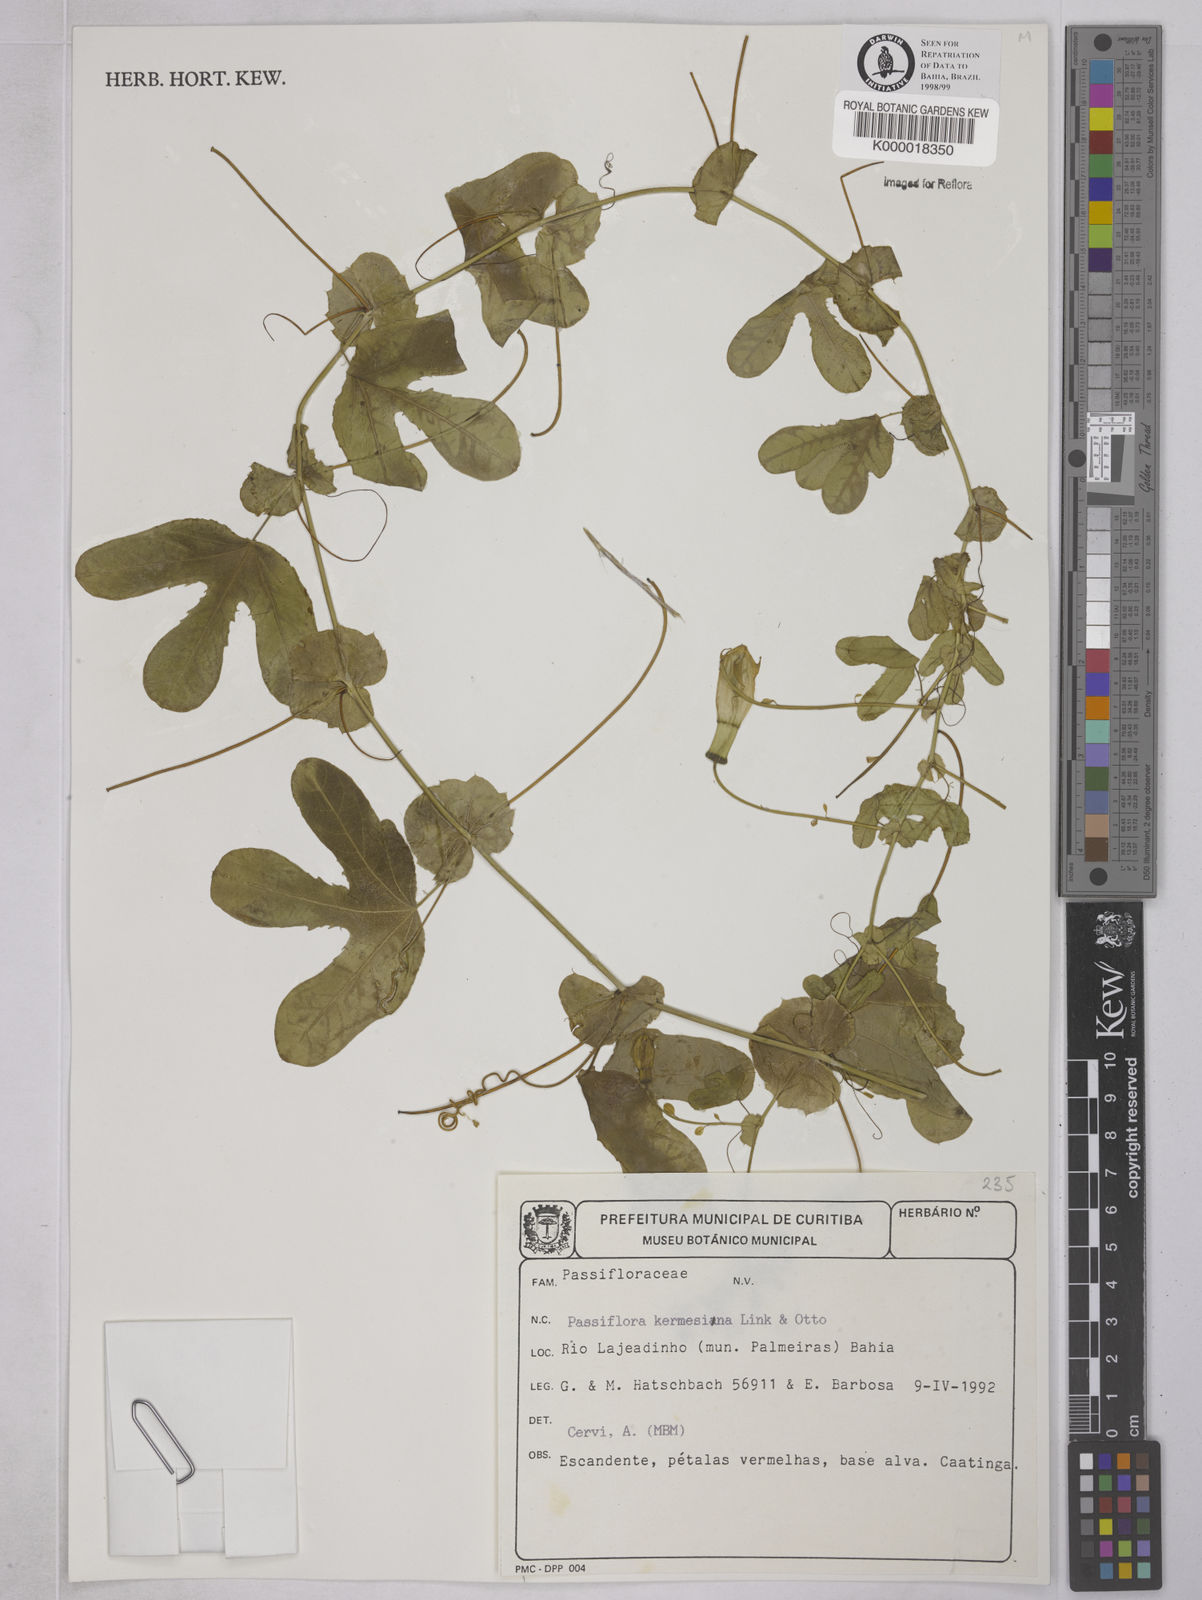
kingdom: Plantae
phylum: Tracheophyta
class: Magnoliopsida
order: Malpighiales
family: Passifloraceae
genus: Passiflora
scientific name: Passiflora kermesina
